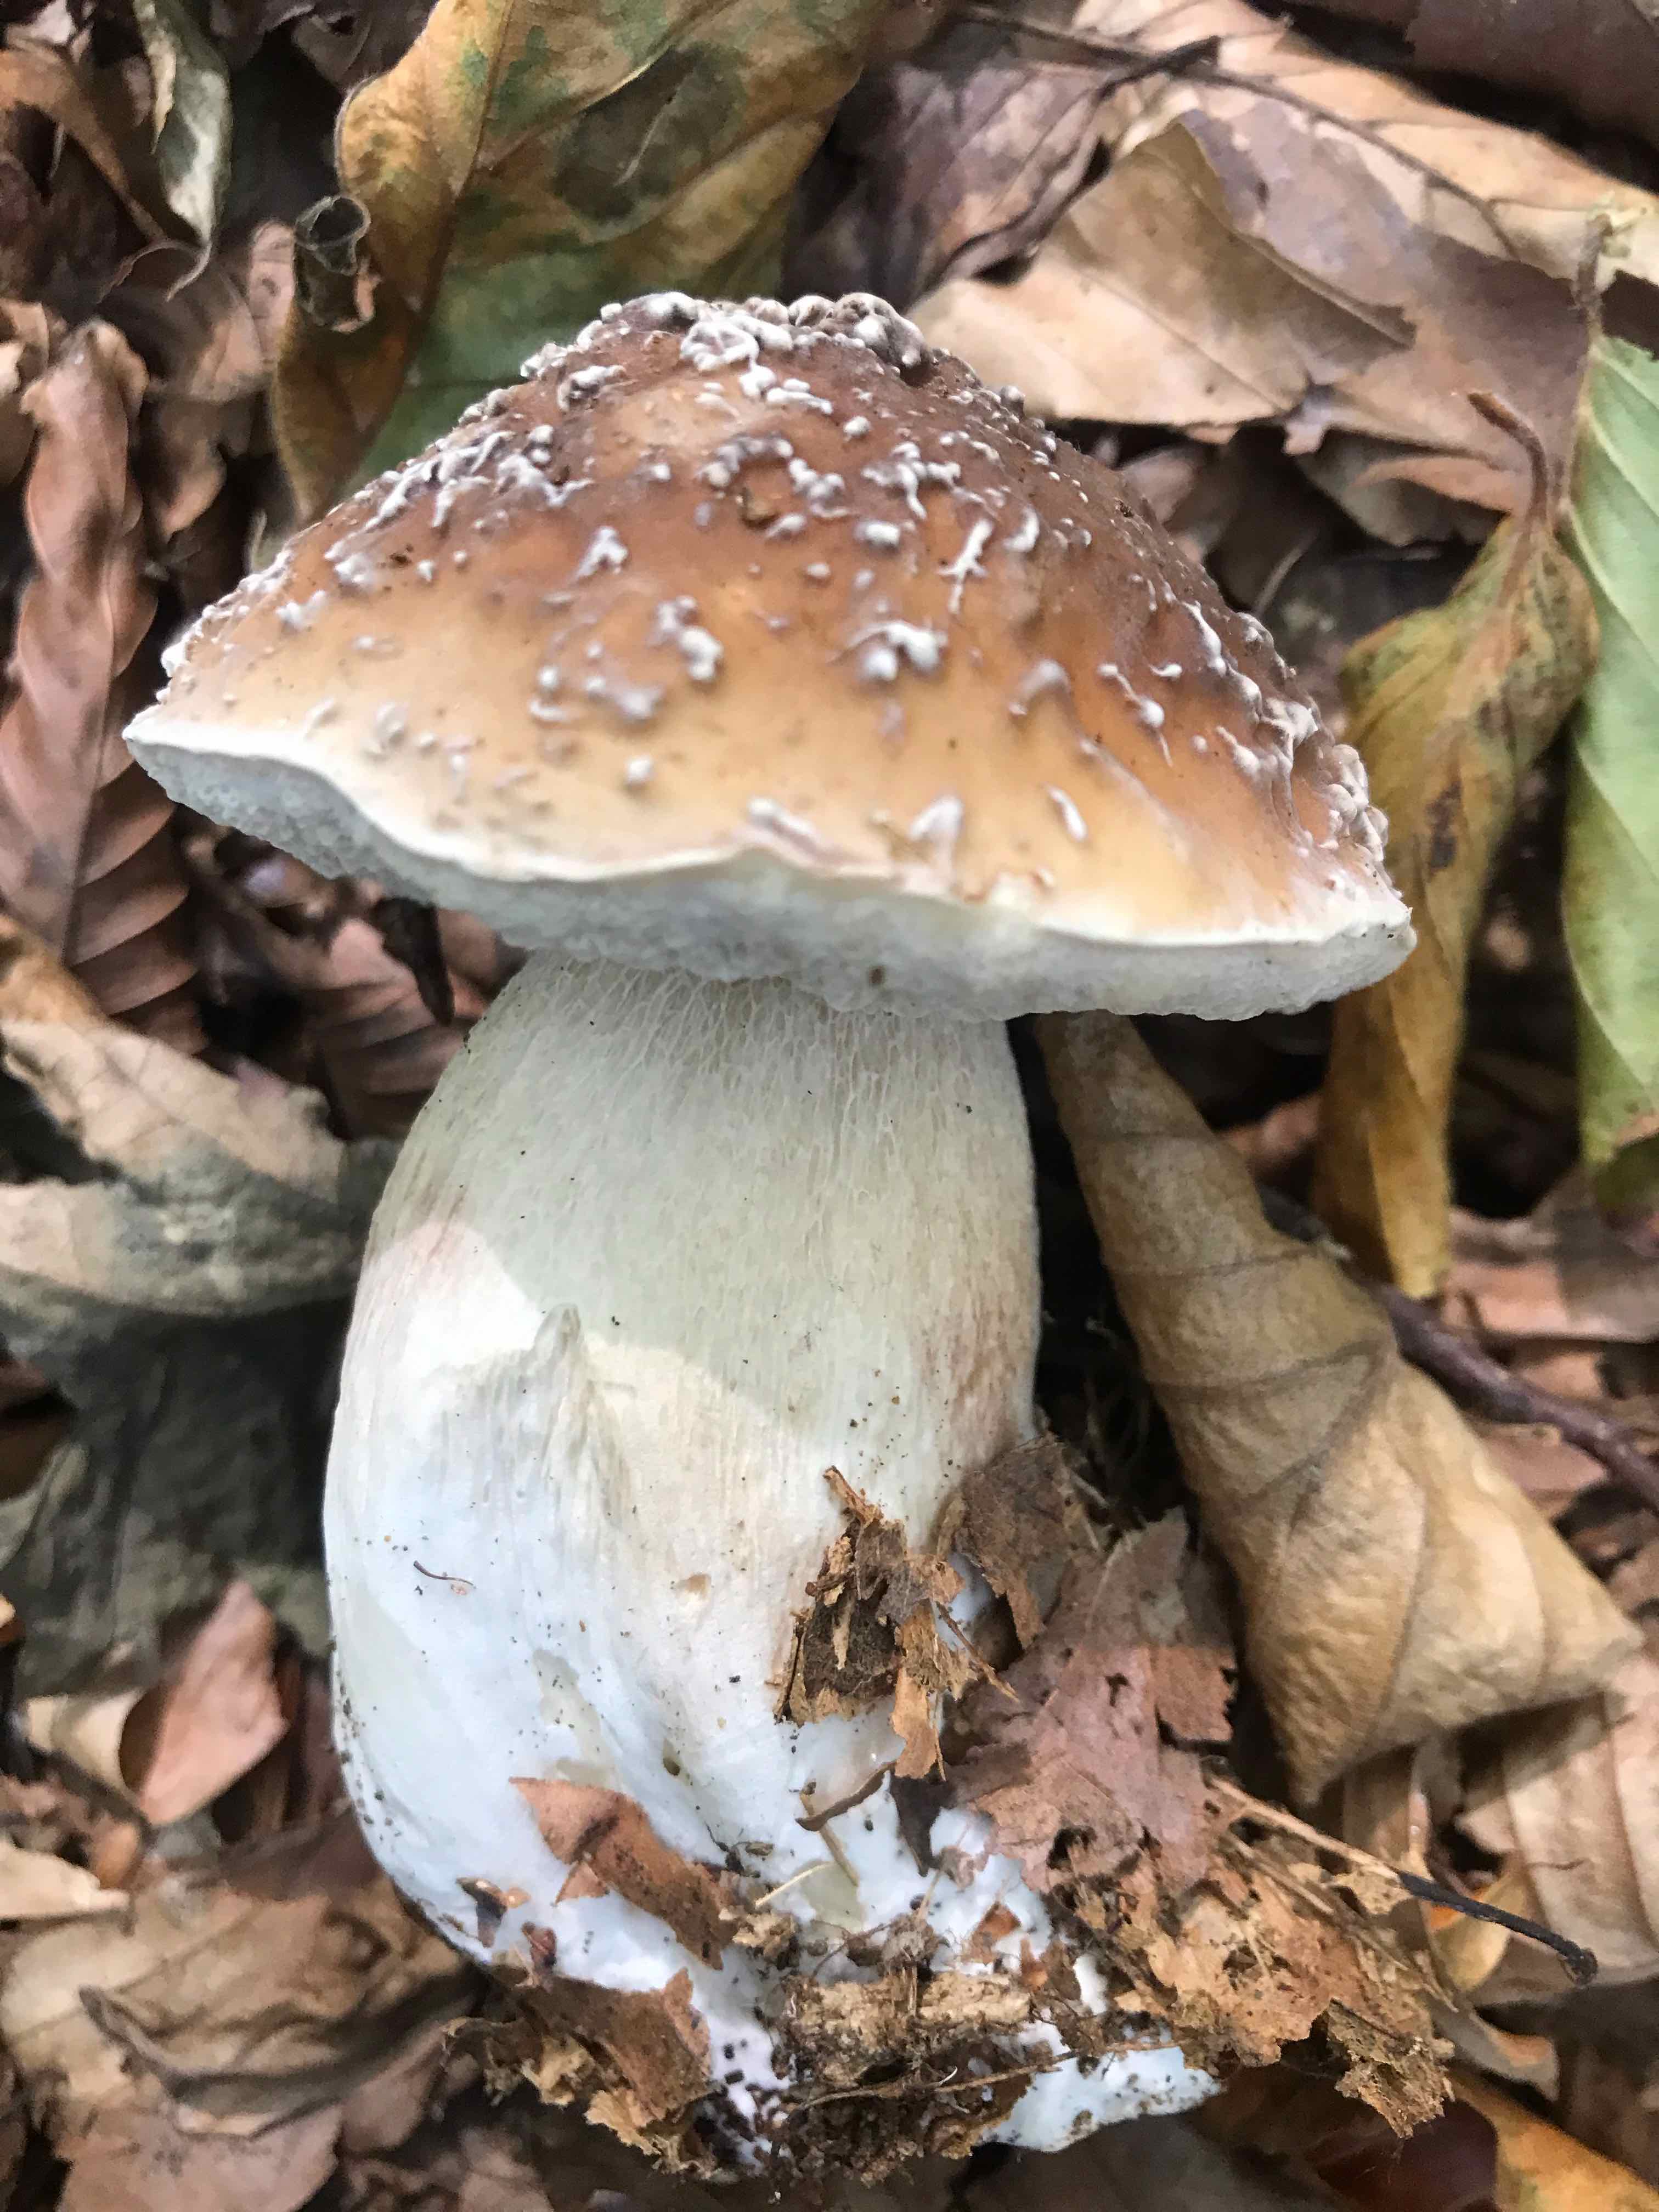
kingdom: Fungi
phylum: Basidiomycota
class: Agaricomycetes
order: Boletales
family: Boletaceae
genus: Boletus
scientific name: Boletus edulis
